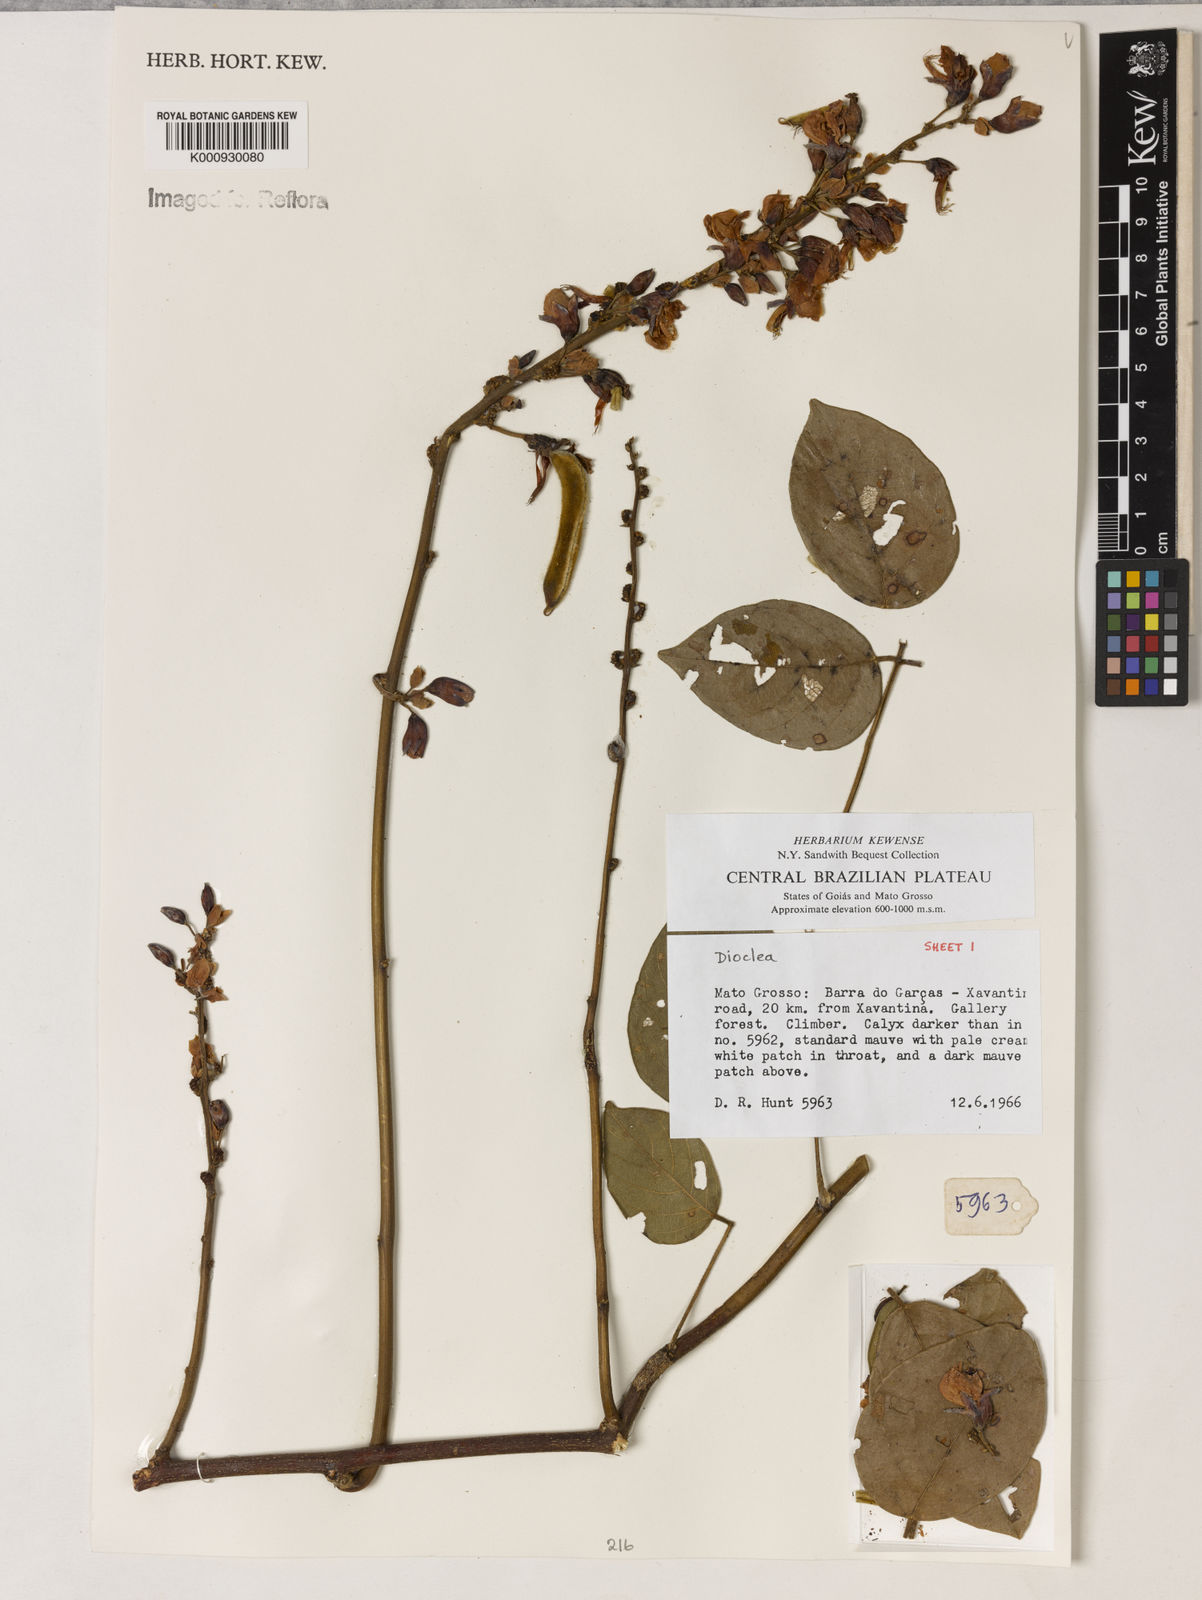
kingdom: Plantae
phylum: Tracheophyta
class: Magnoliopsida
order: Fabales
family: Fabaceae
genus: Dioclea
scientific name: Dioclea
